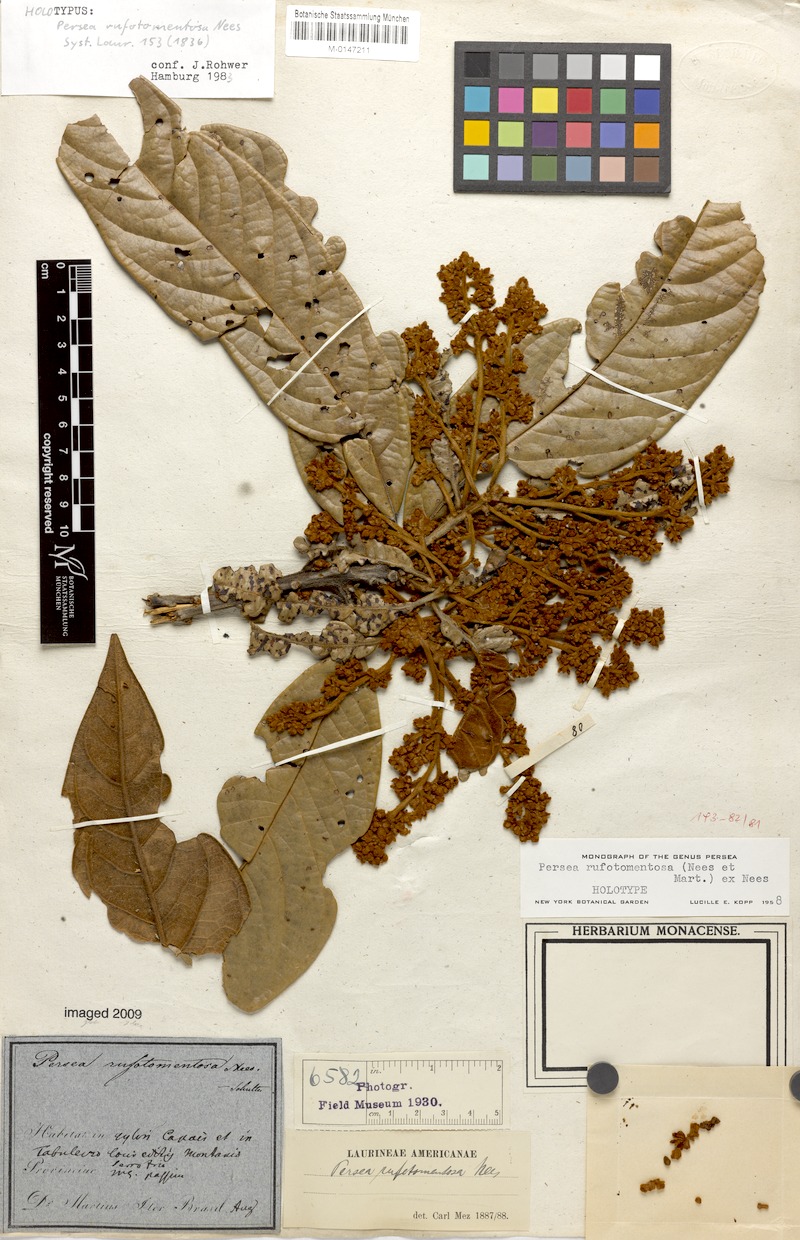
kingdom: Plantae
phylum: Tracheophyta
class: Magnoliopsida
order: Laurales
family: Lauraceae
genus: Persea
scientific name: Persea rufotomentosa
